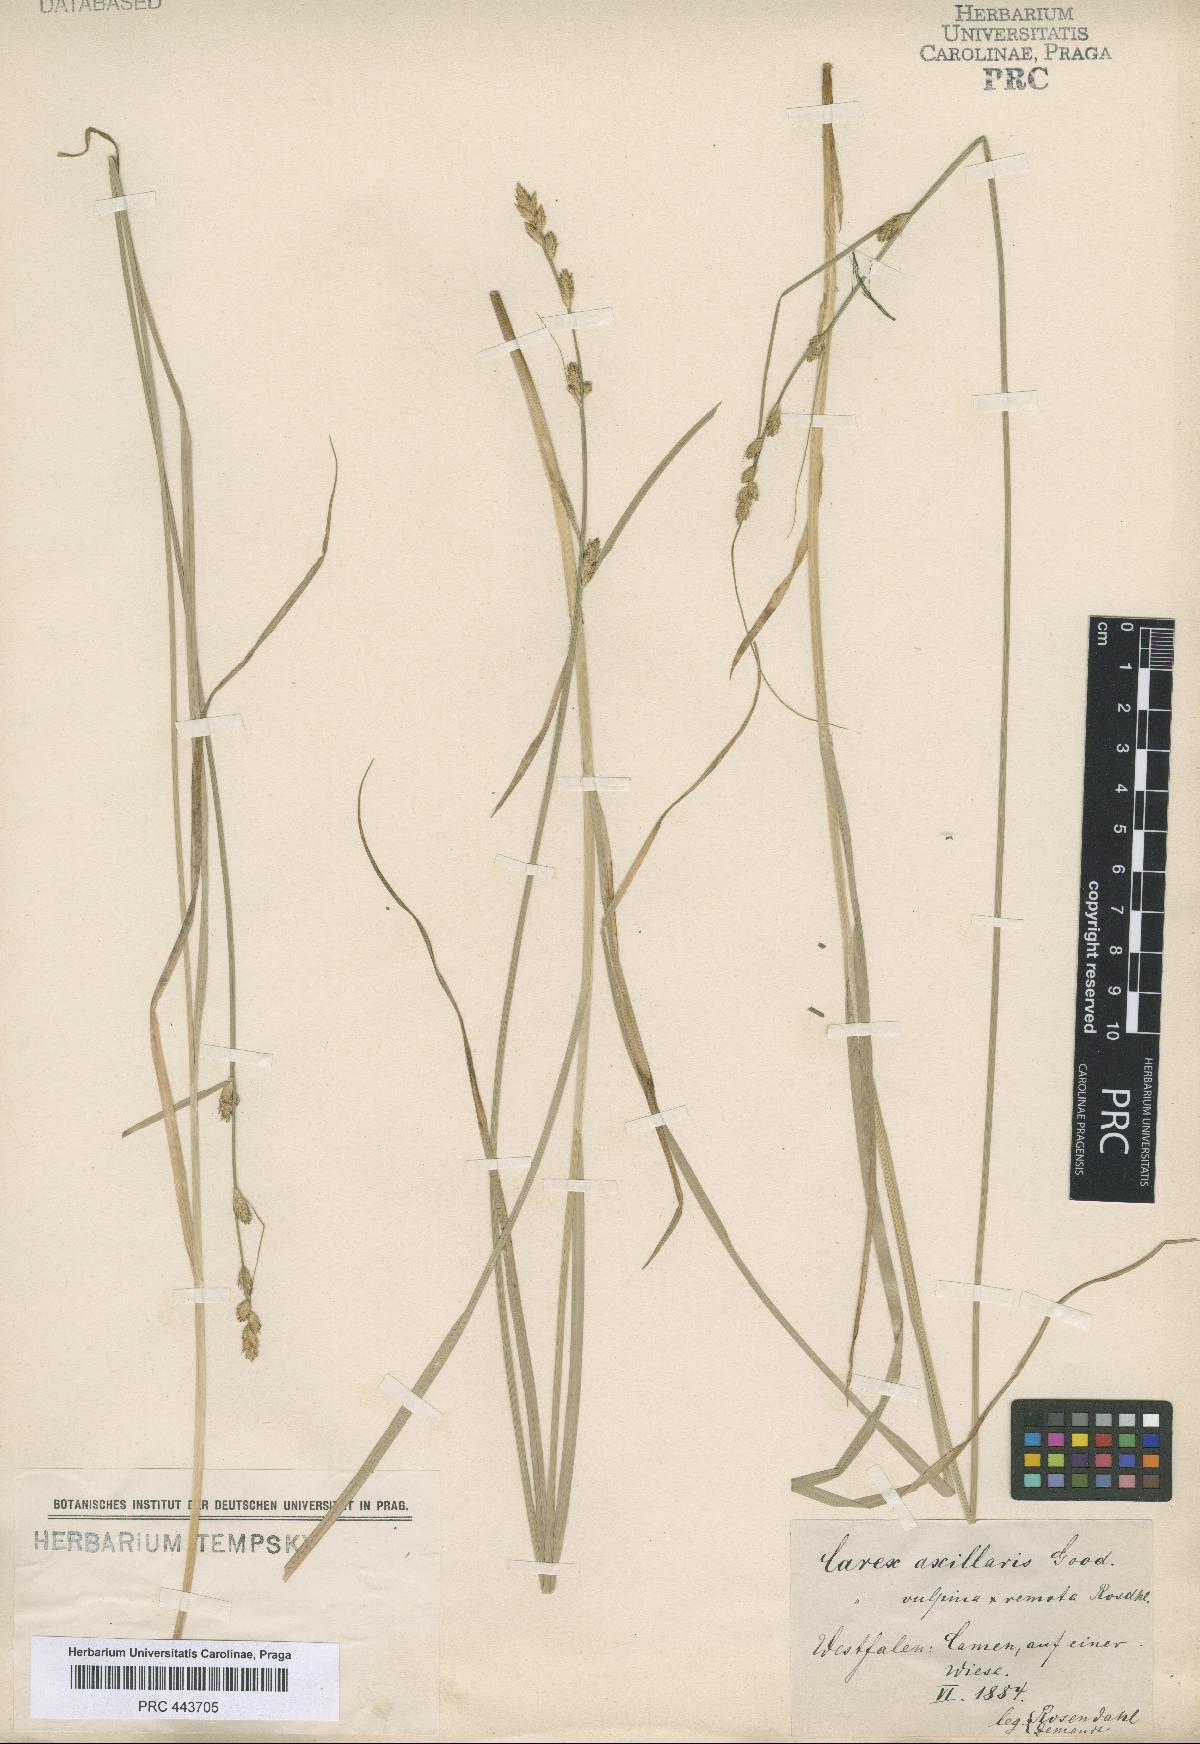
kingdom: Plantae
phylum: Tracheophyta
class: Liliopsida
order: Poales
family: Cyperaceae
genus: Carex
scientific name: Carex pseudoaxillaris
